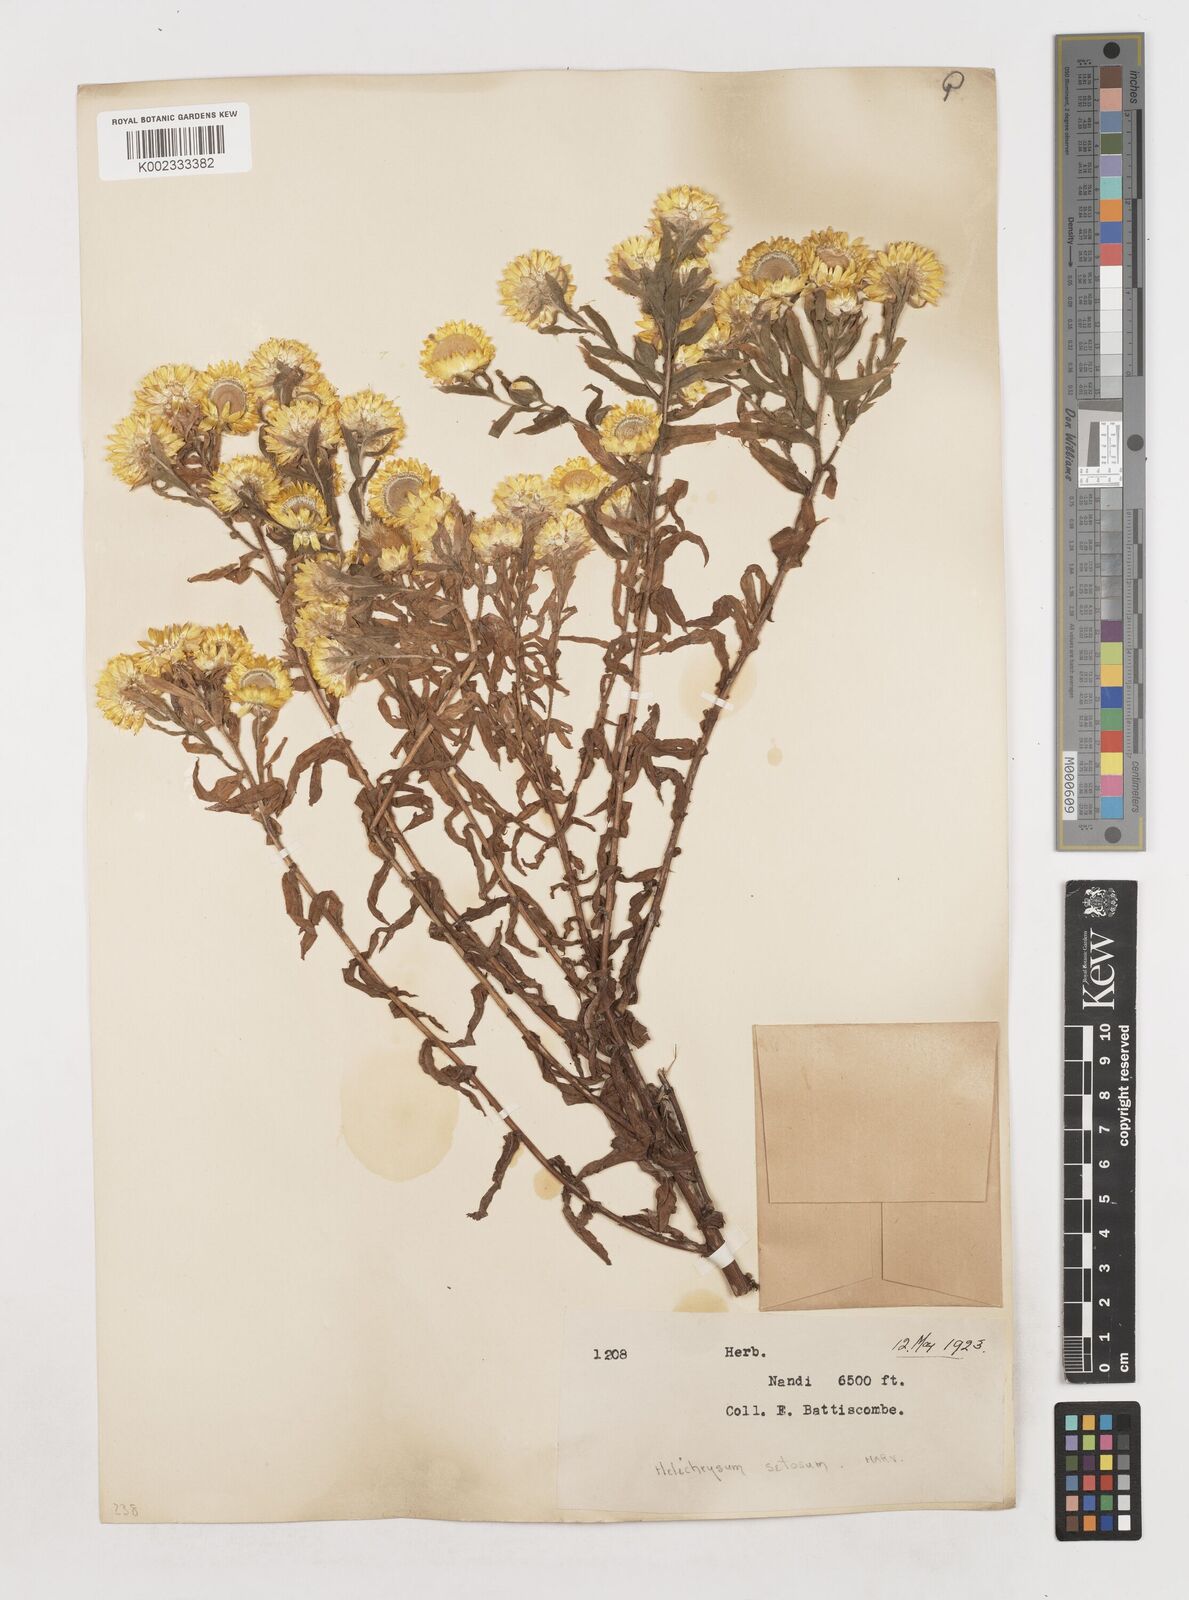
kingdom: Plantae
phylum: Tracheophyta
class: Magnoliopsida
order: Asterales
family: Asteraceae
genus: Helichrysum
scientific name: Helichrysum setosum
